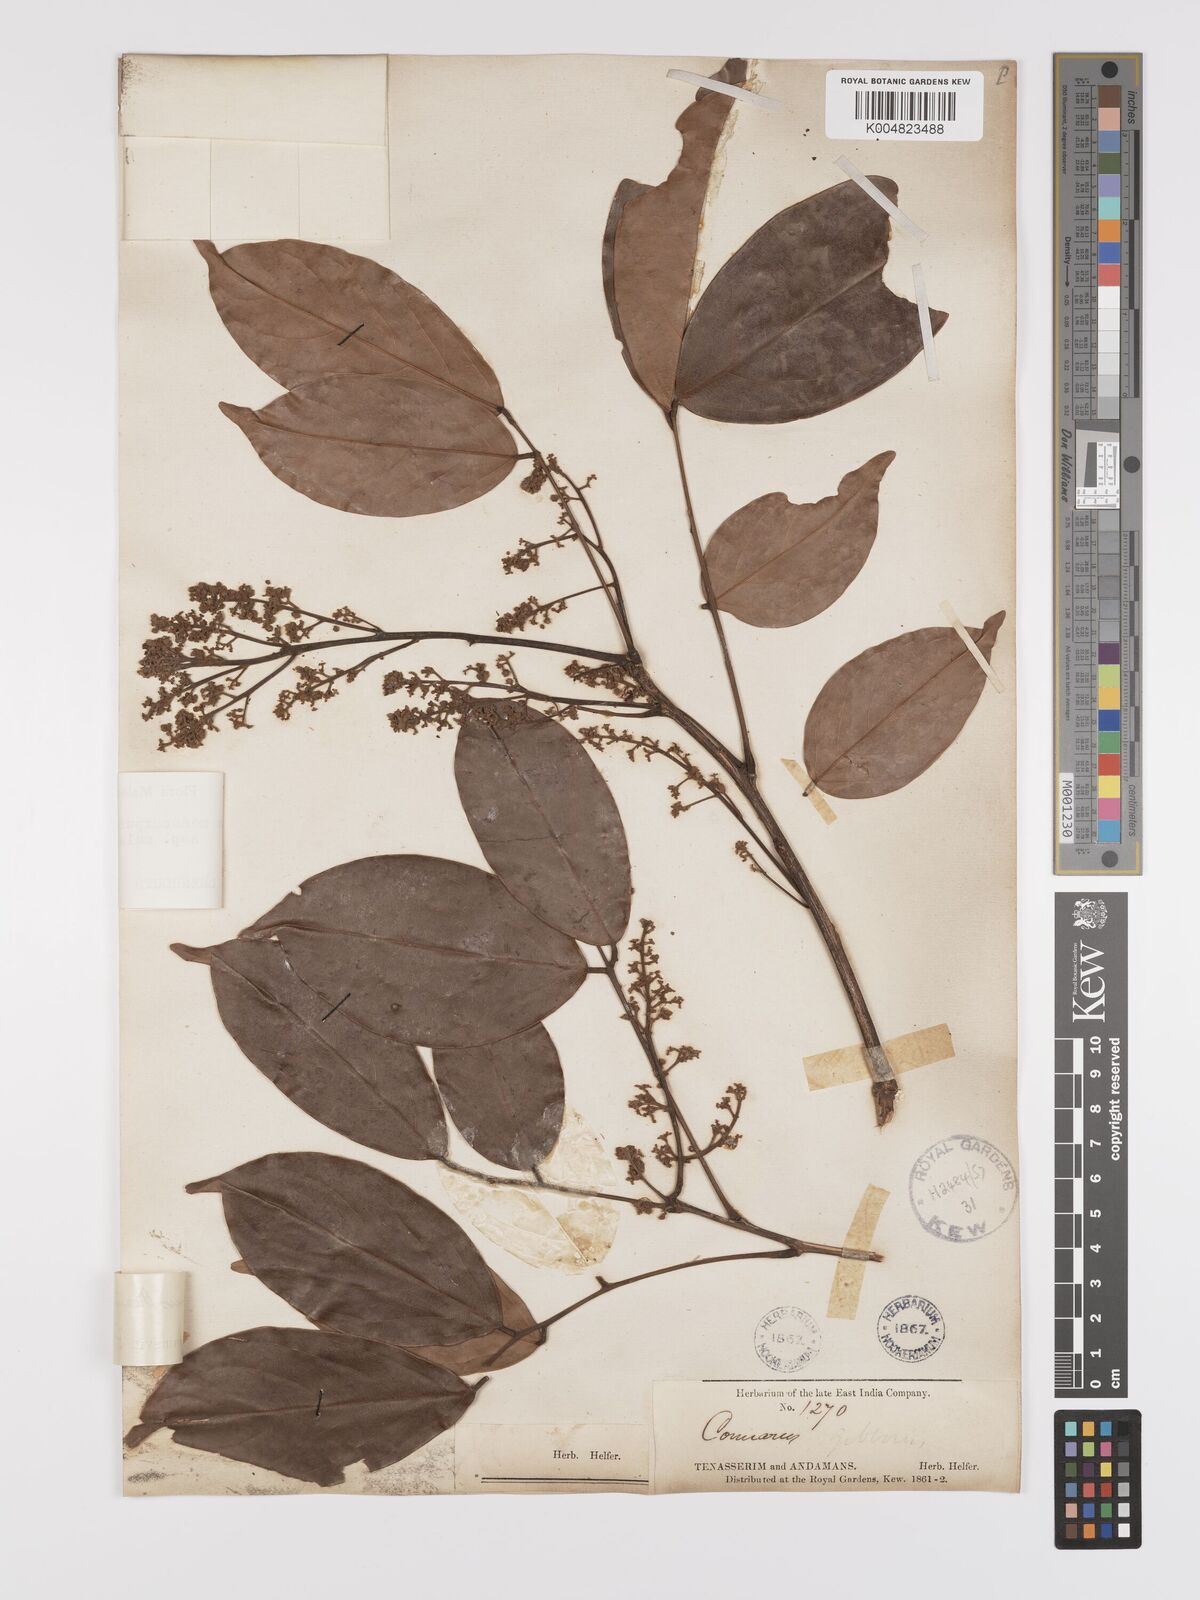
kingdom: Plantae
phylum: Tracheophyta
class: Magnoliopsida
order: Oxalidales
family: Connaraceae
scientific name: Connaraceae
